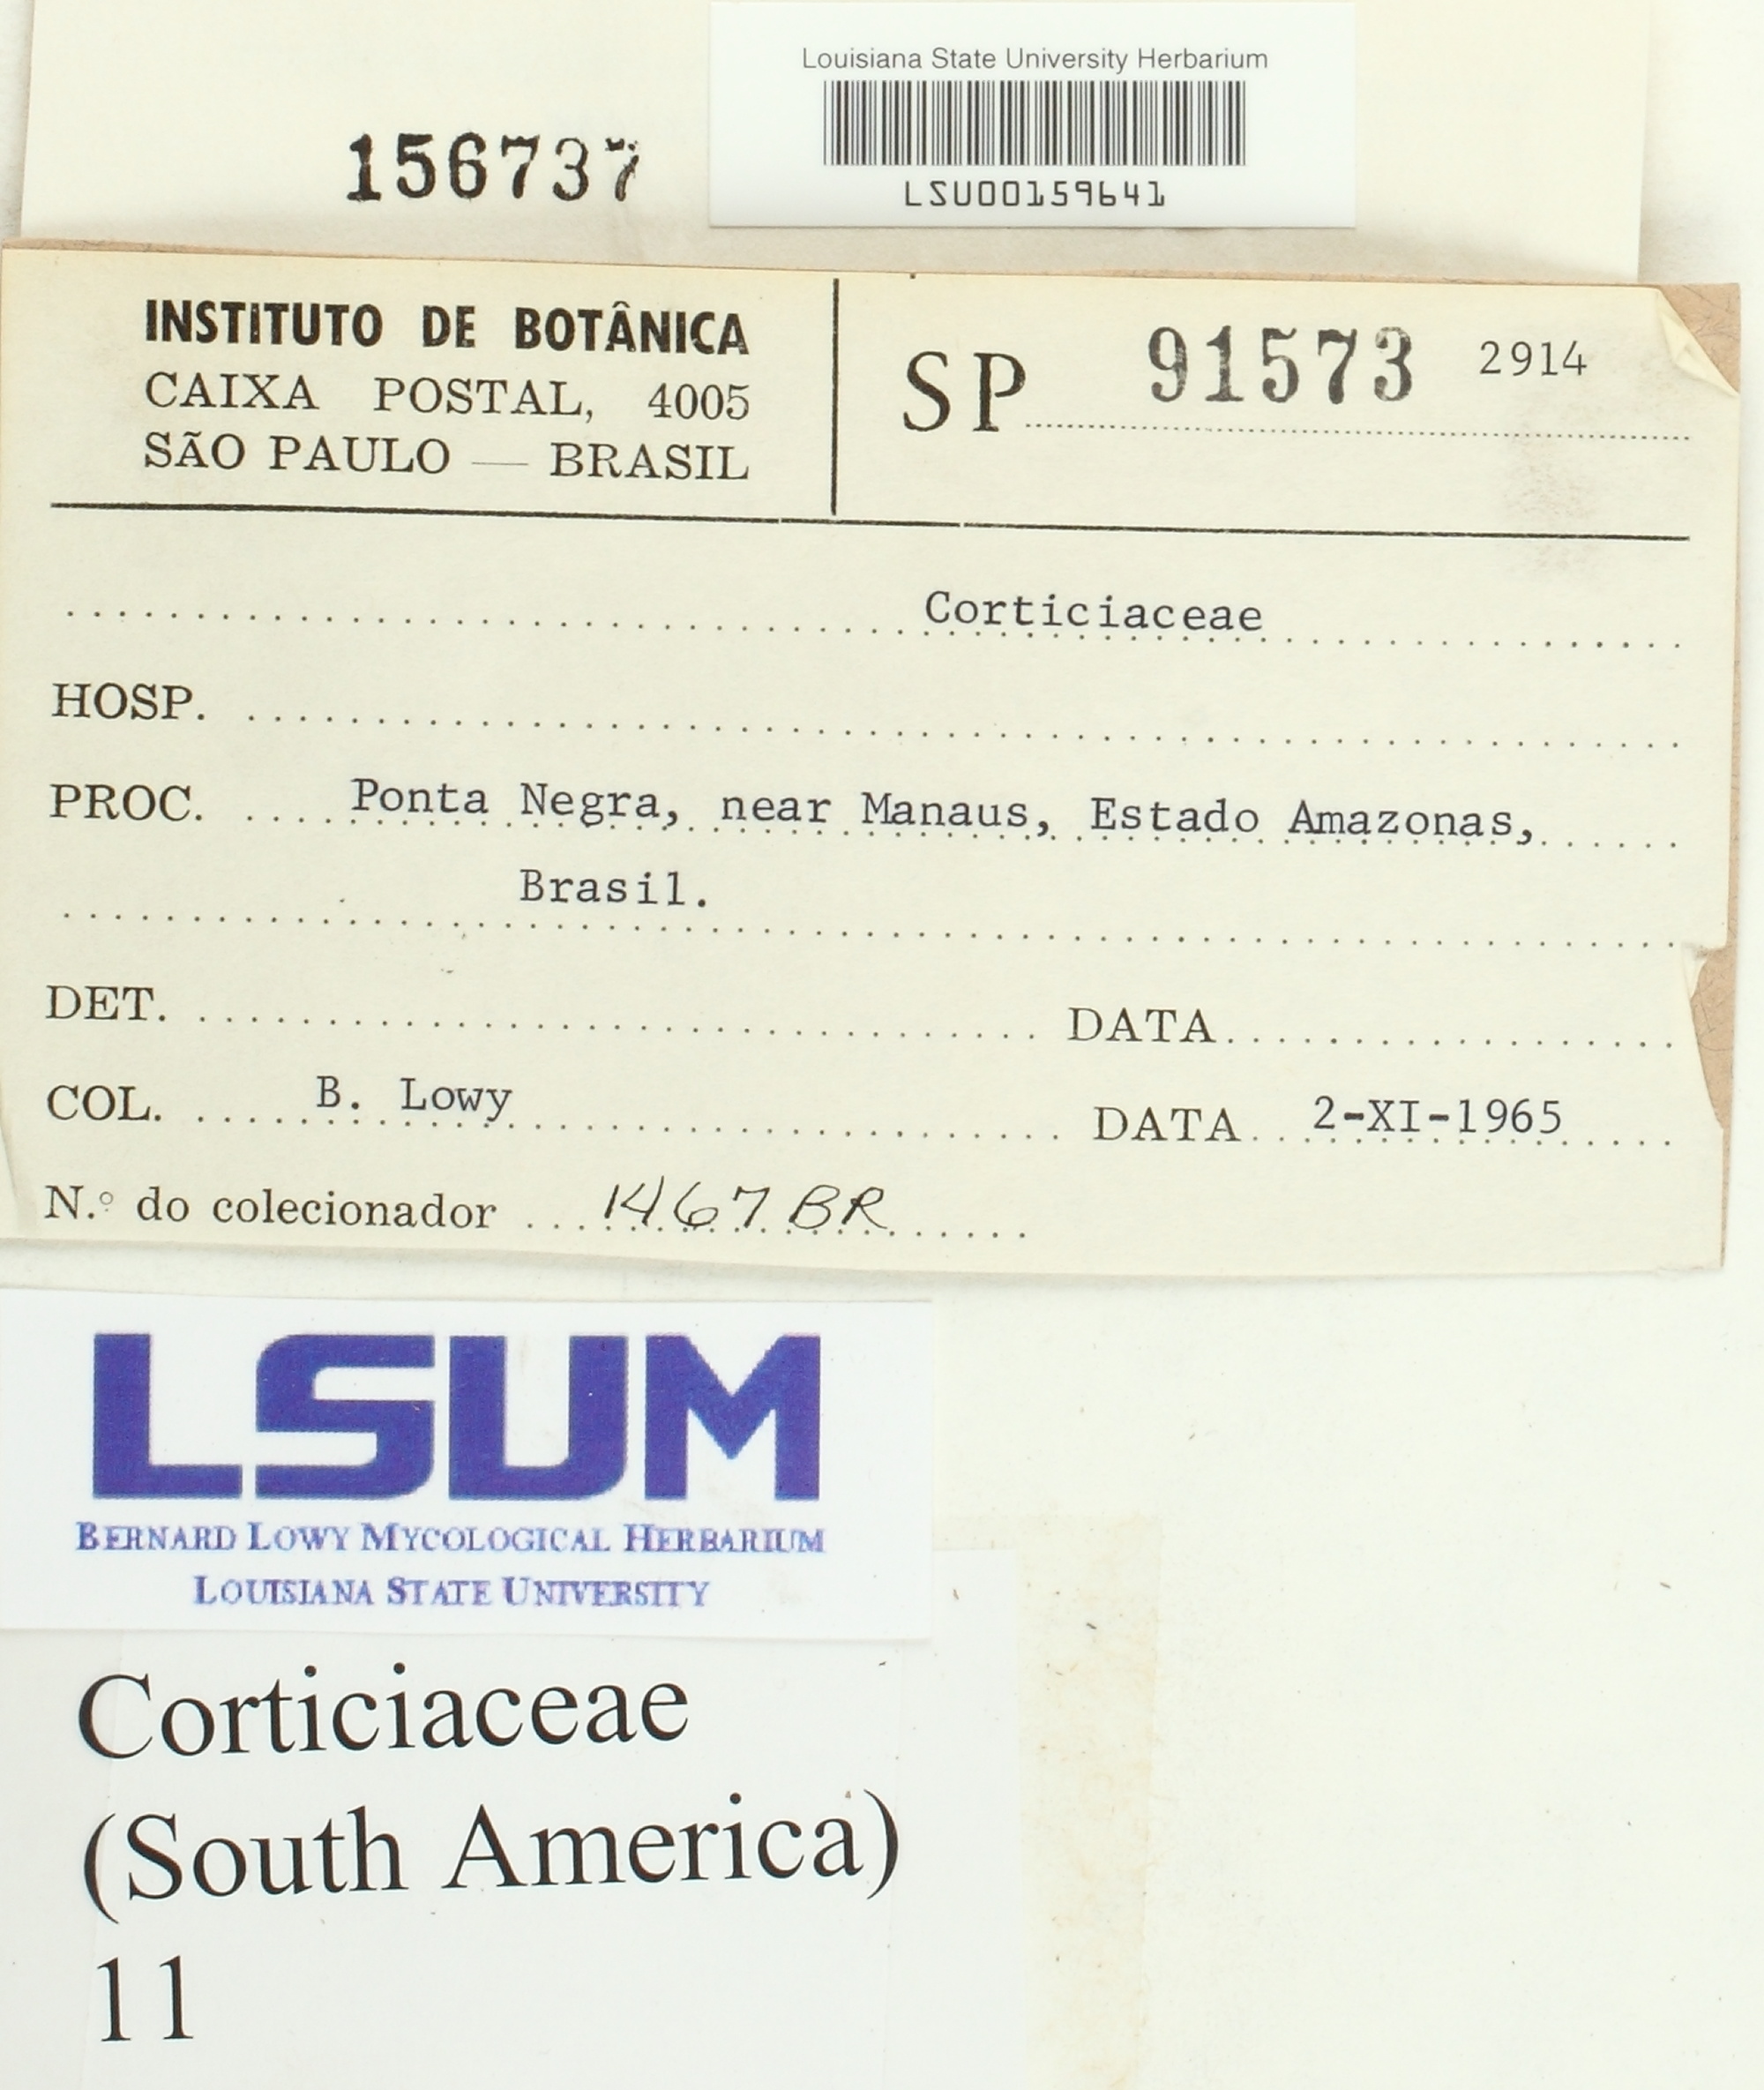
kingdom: Fungi
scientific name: Fungi
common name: Fungi
